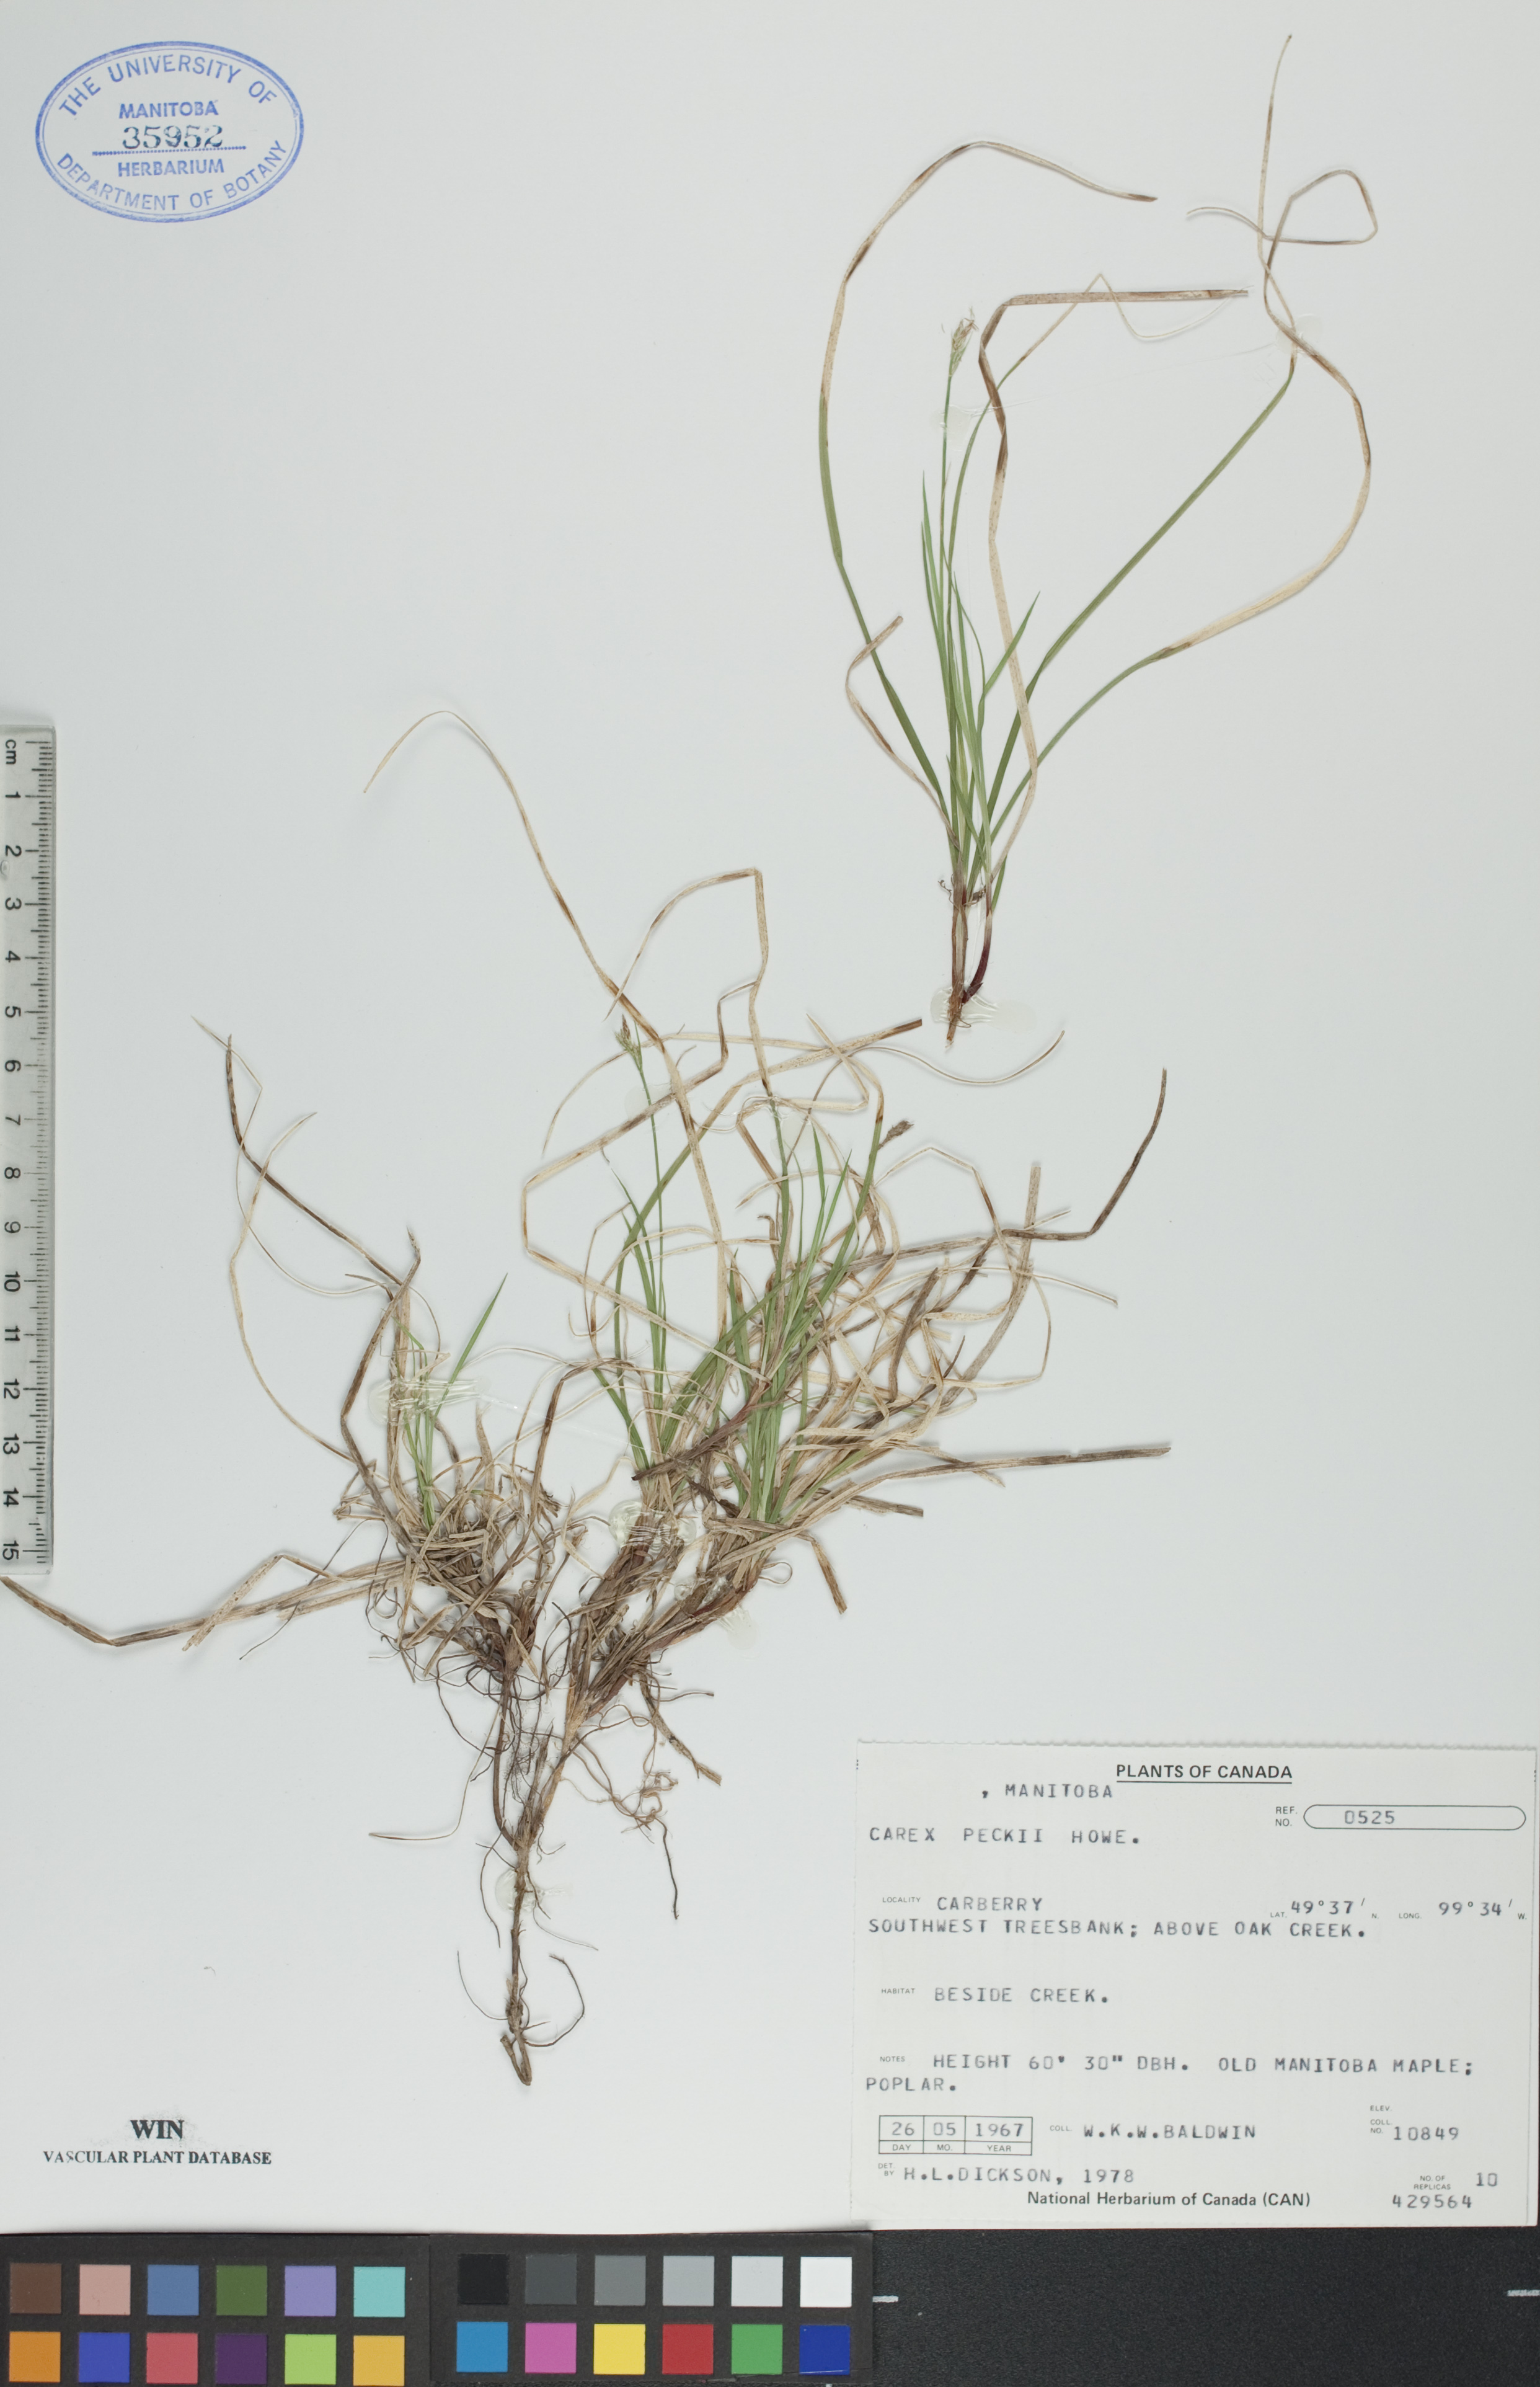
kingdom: Plantae
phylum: Tracheophyta
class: Liliopsida
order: Poales
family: Cyperaceae
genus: Carex
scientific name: Carex peckii
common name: Peck's oak sedge
